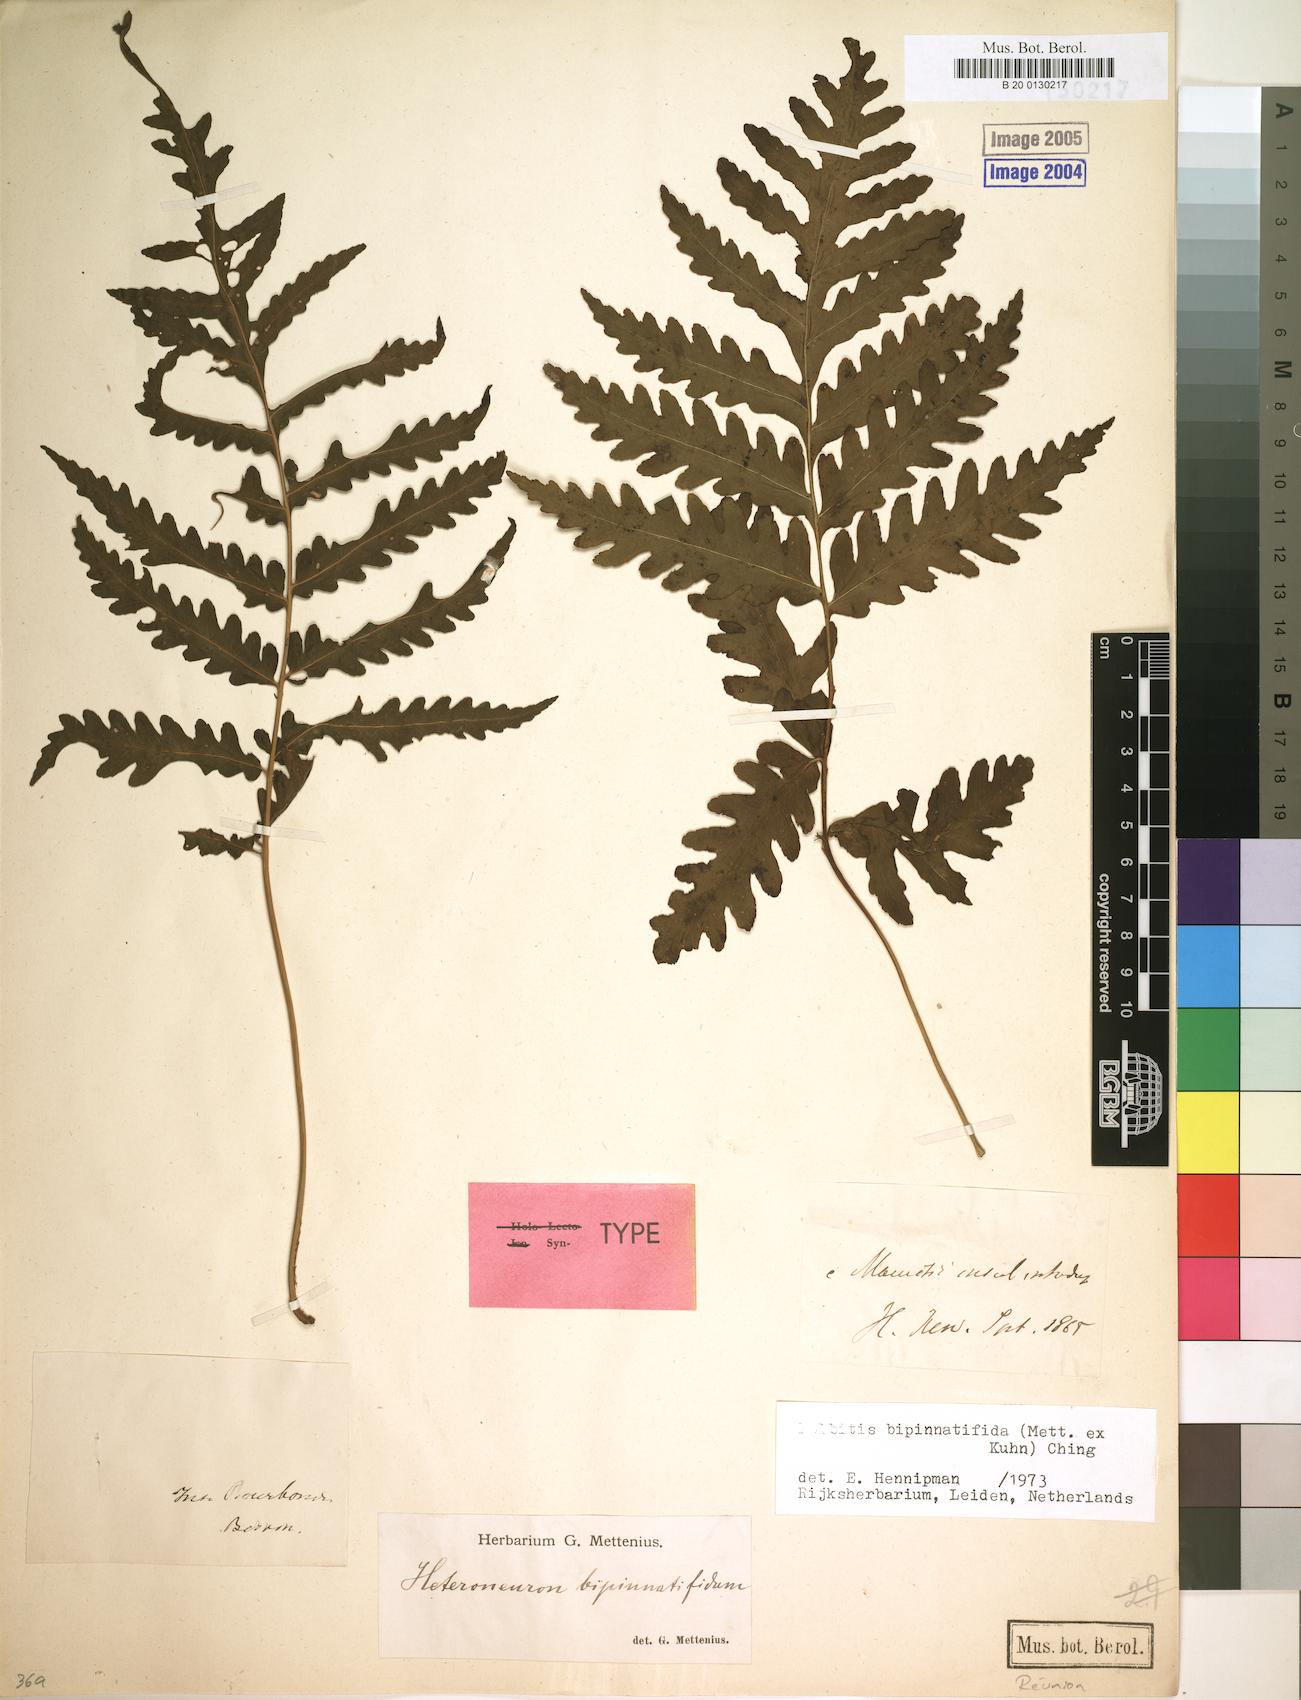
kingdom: Plantae
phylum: Tracheophyta
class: Polypodiopsida
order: Polypodiales
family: Dryopteridaceae
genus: Bolbitis
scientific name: Bolbitis bipinnatifida
